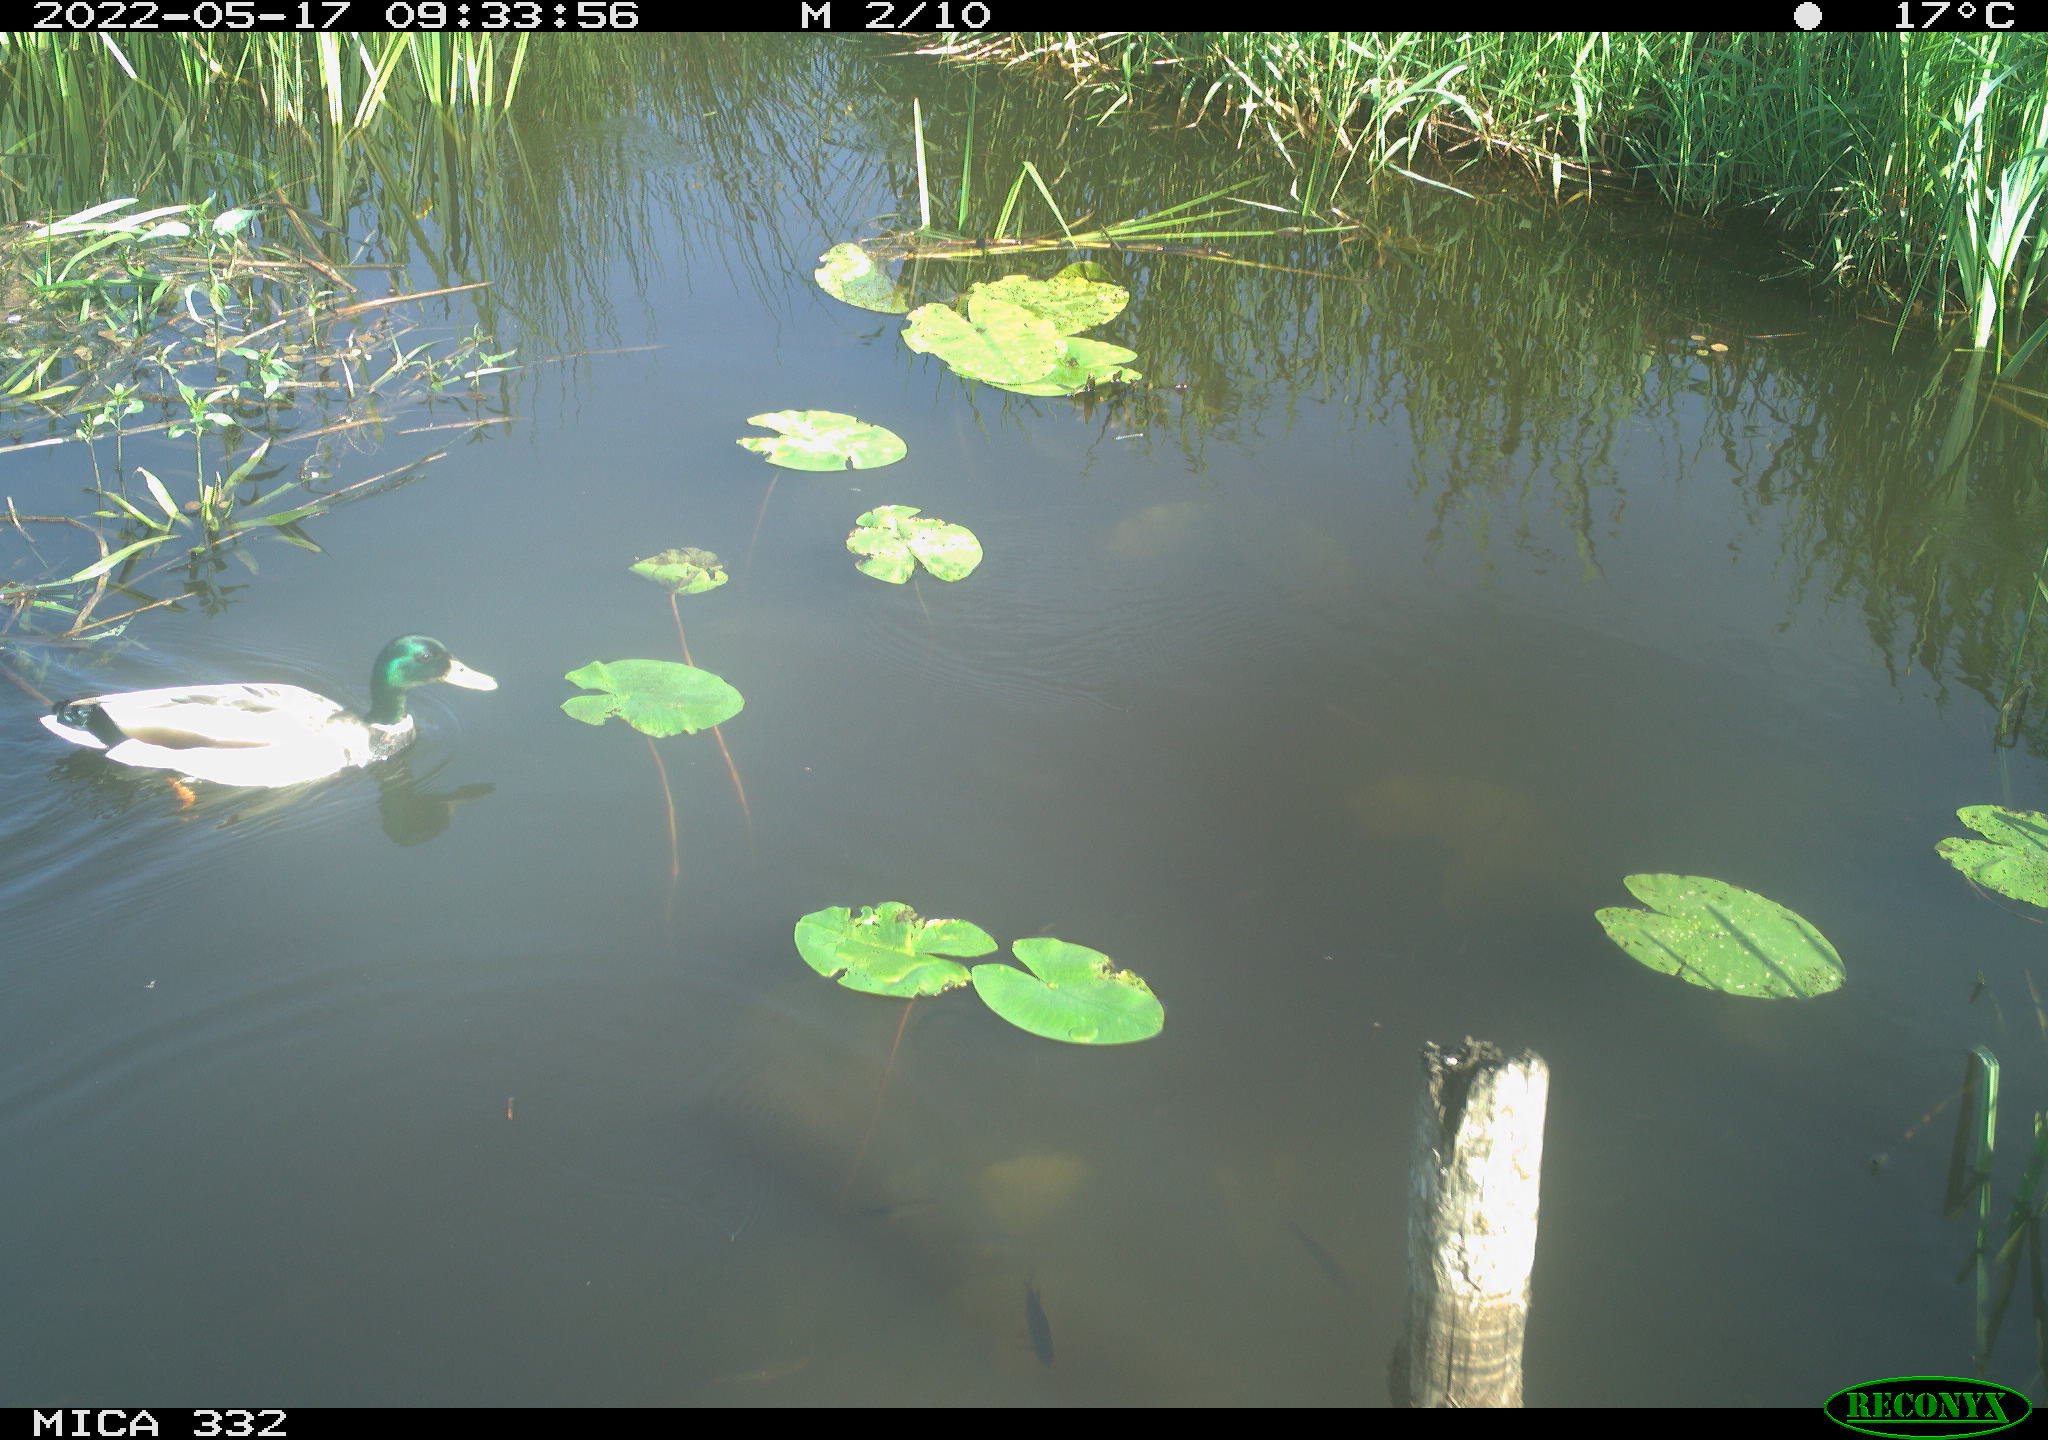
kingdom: Animalia
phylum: Chordata
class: Aves
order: Anseriformes
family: Anatidae
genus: Anas
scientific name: Anas platyrhynchos
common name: Mallard
